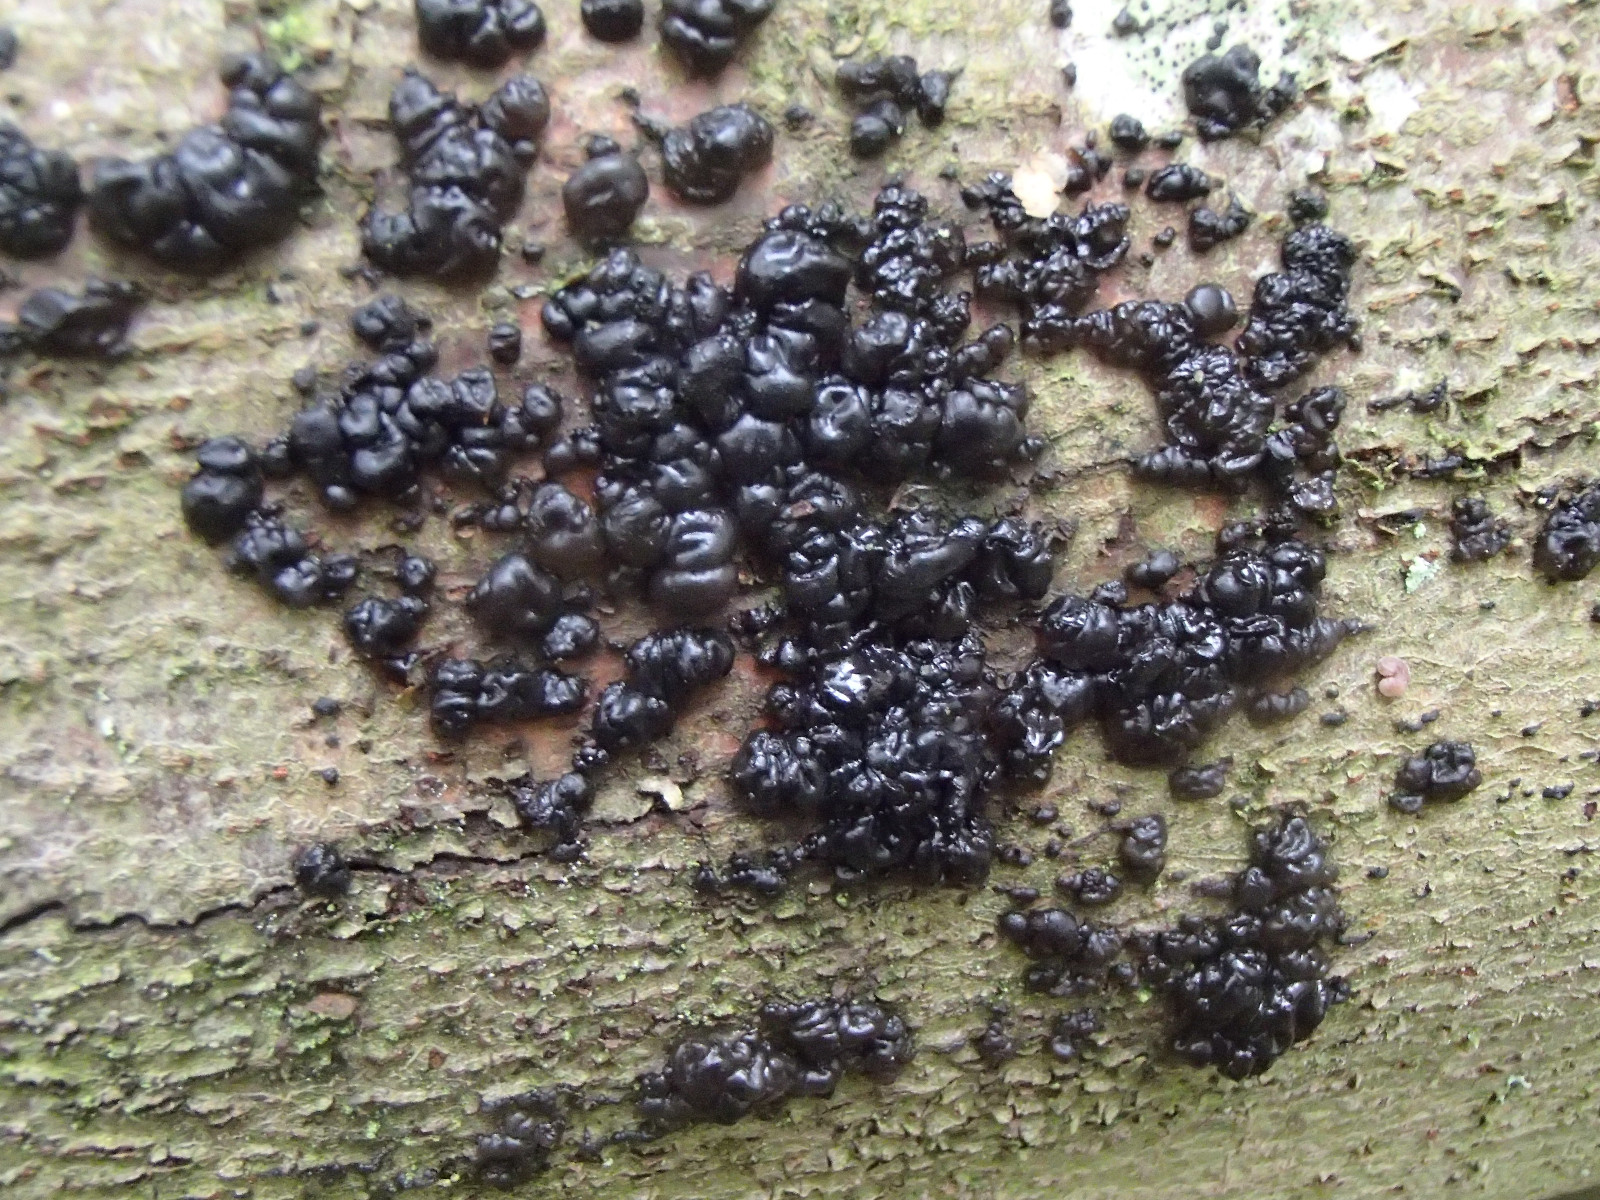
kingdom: Fungi
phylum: Basidiomycota
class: Agaricomycetes
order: Auriculariales
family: Auriculariaceae
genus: Exidia
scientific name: Exidia nigricans
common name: almindelig bævretop
